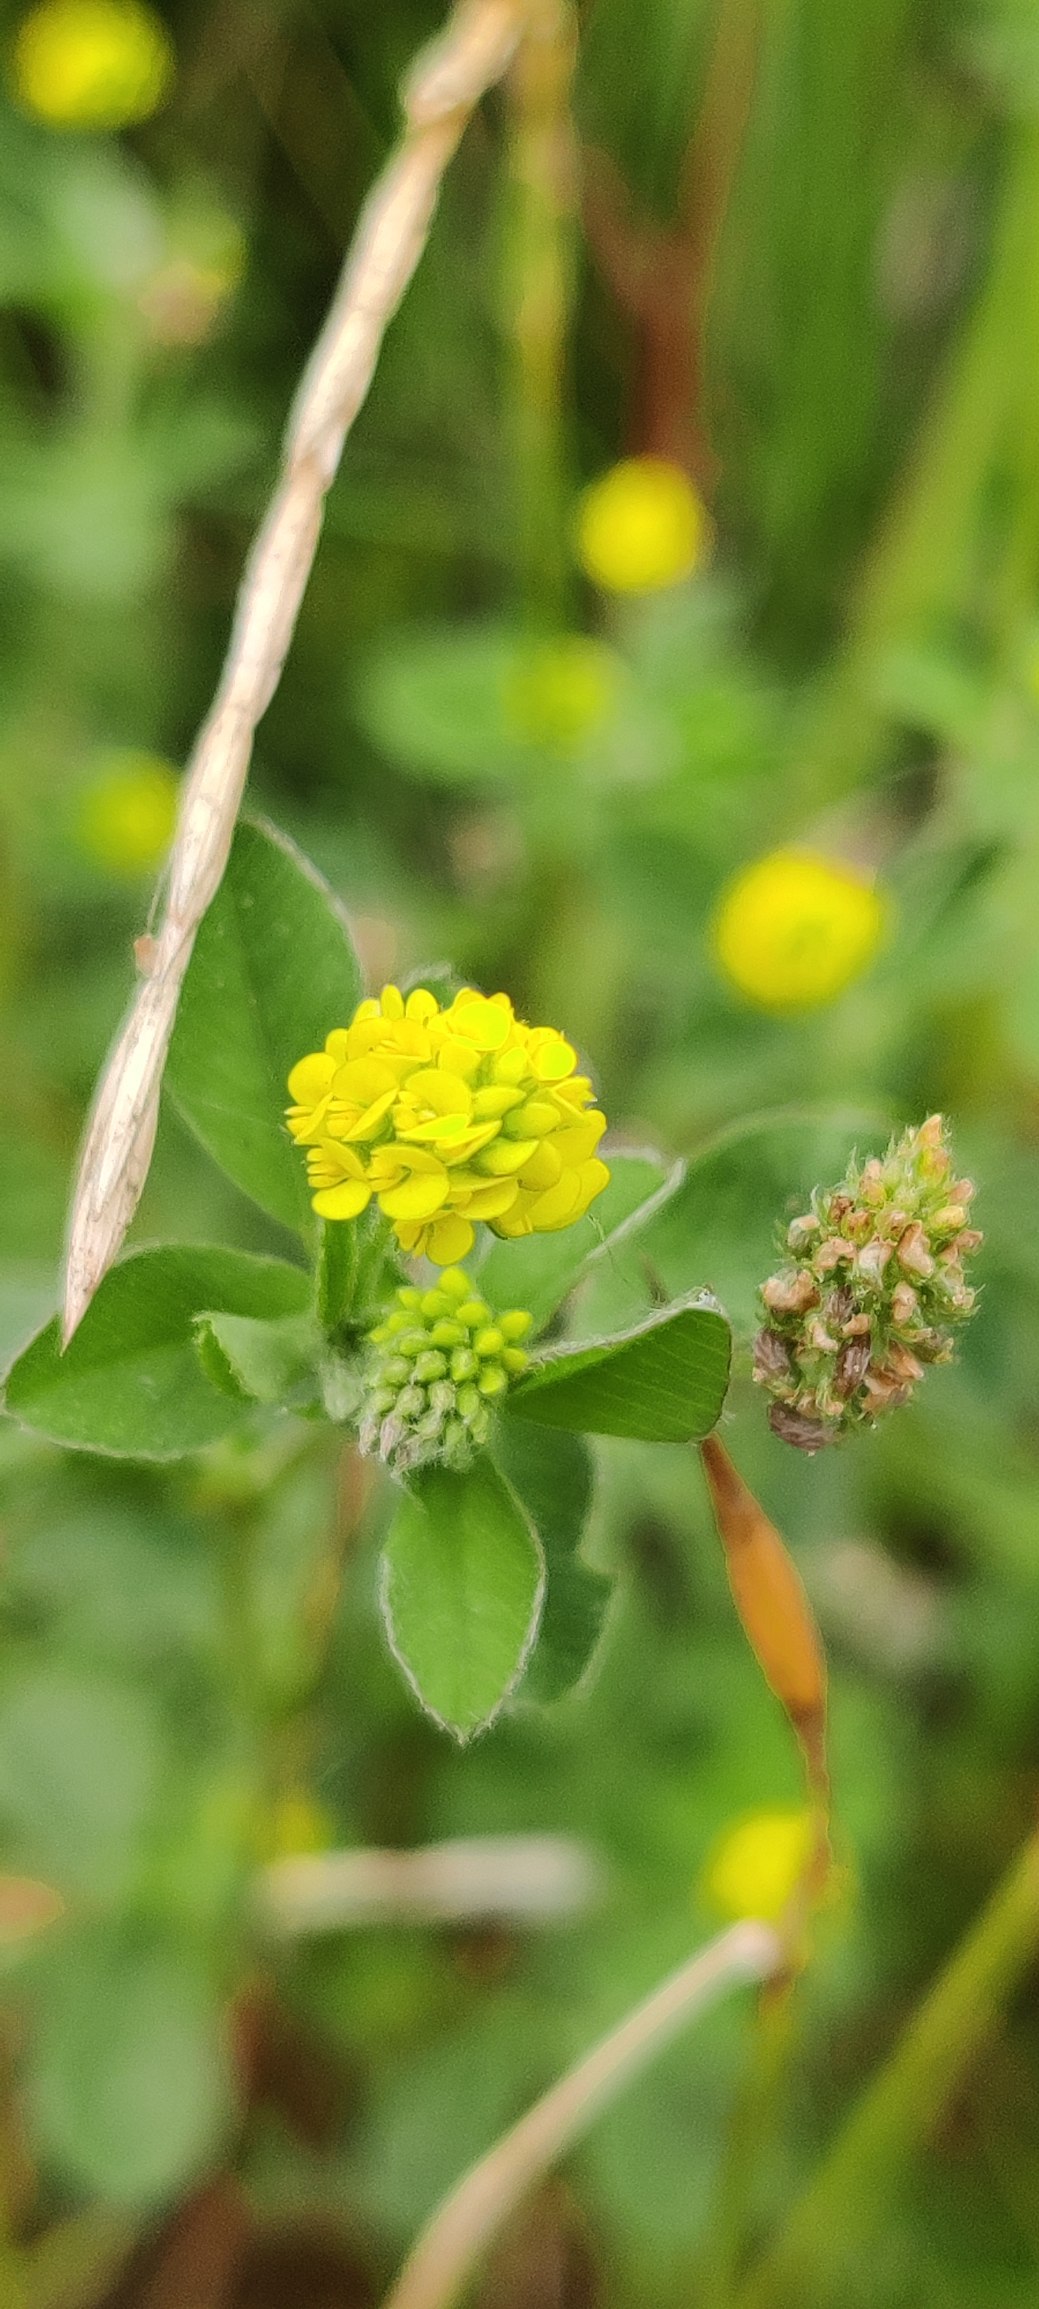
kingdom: Plantae
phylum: Tracheophyta
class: Magnoliopsida
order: Fabales
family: Fabaceae
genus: Medicago
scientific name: Medicago lupulina
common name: Humle-sneglebælg
